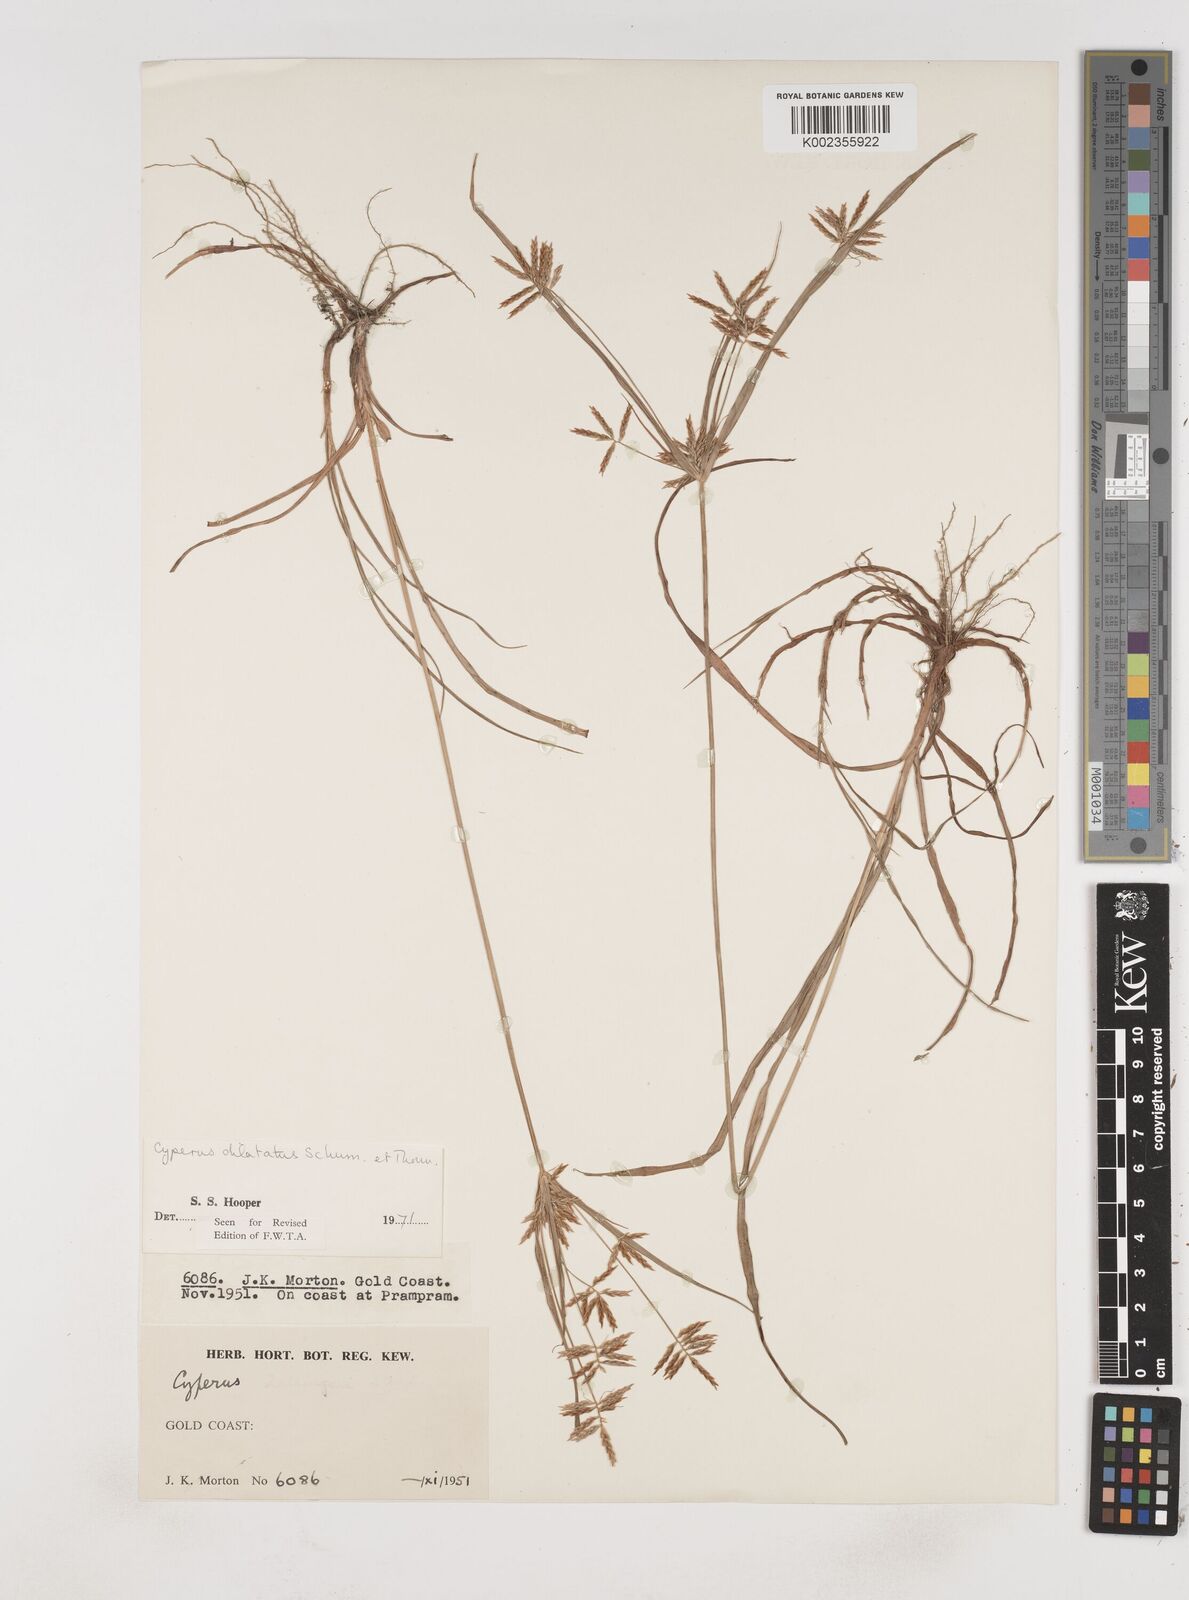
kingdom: Plantae
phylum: Tracheophyta
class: Liliopsida
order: Poales
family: Cyperaceae
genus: Cyperus
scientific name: Cyperus dilatatus
